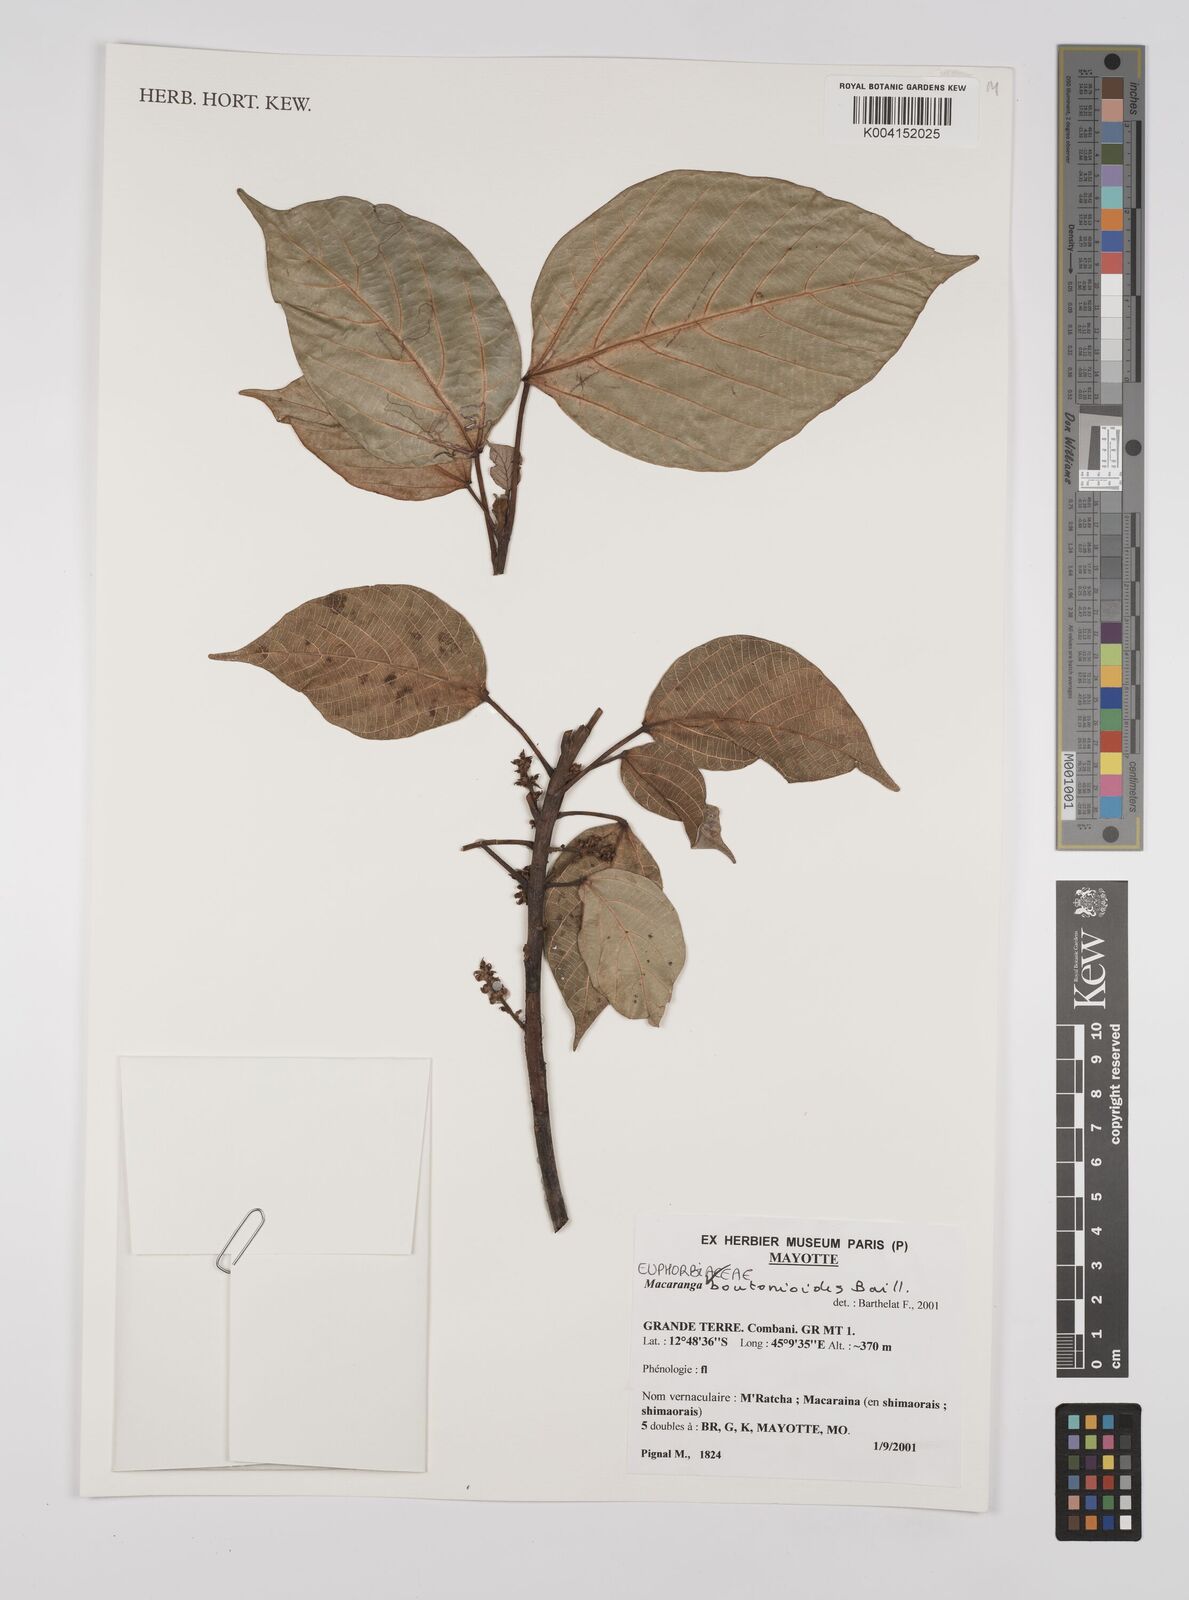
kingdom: Plantae
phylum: Tracheophyta
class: Magnoliopsida
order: Malpighiales
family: Euphorbiaceae
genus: Macaranga
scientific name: Macaranga boutonioides
